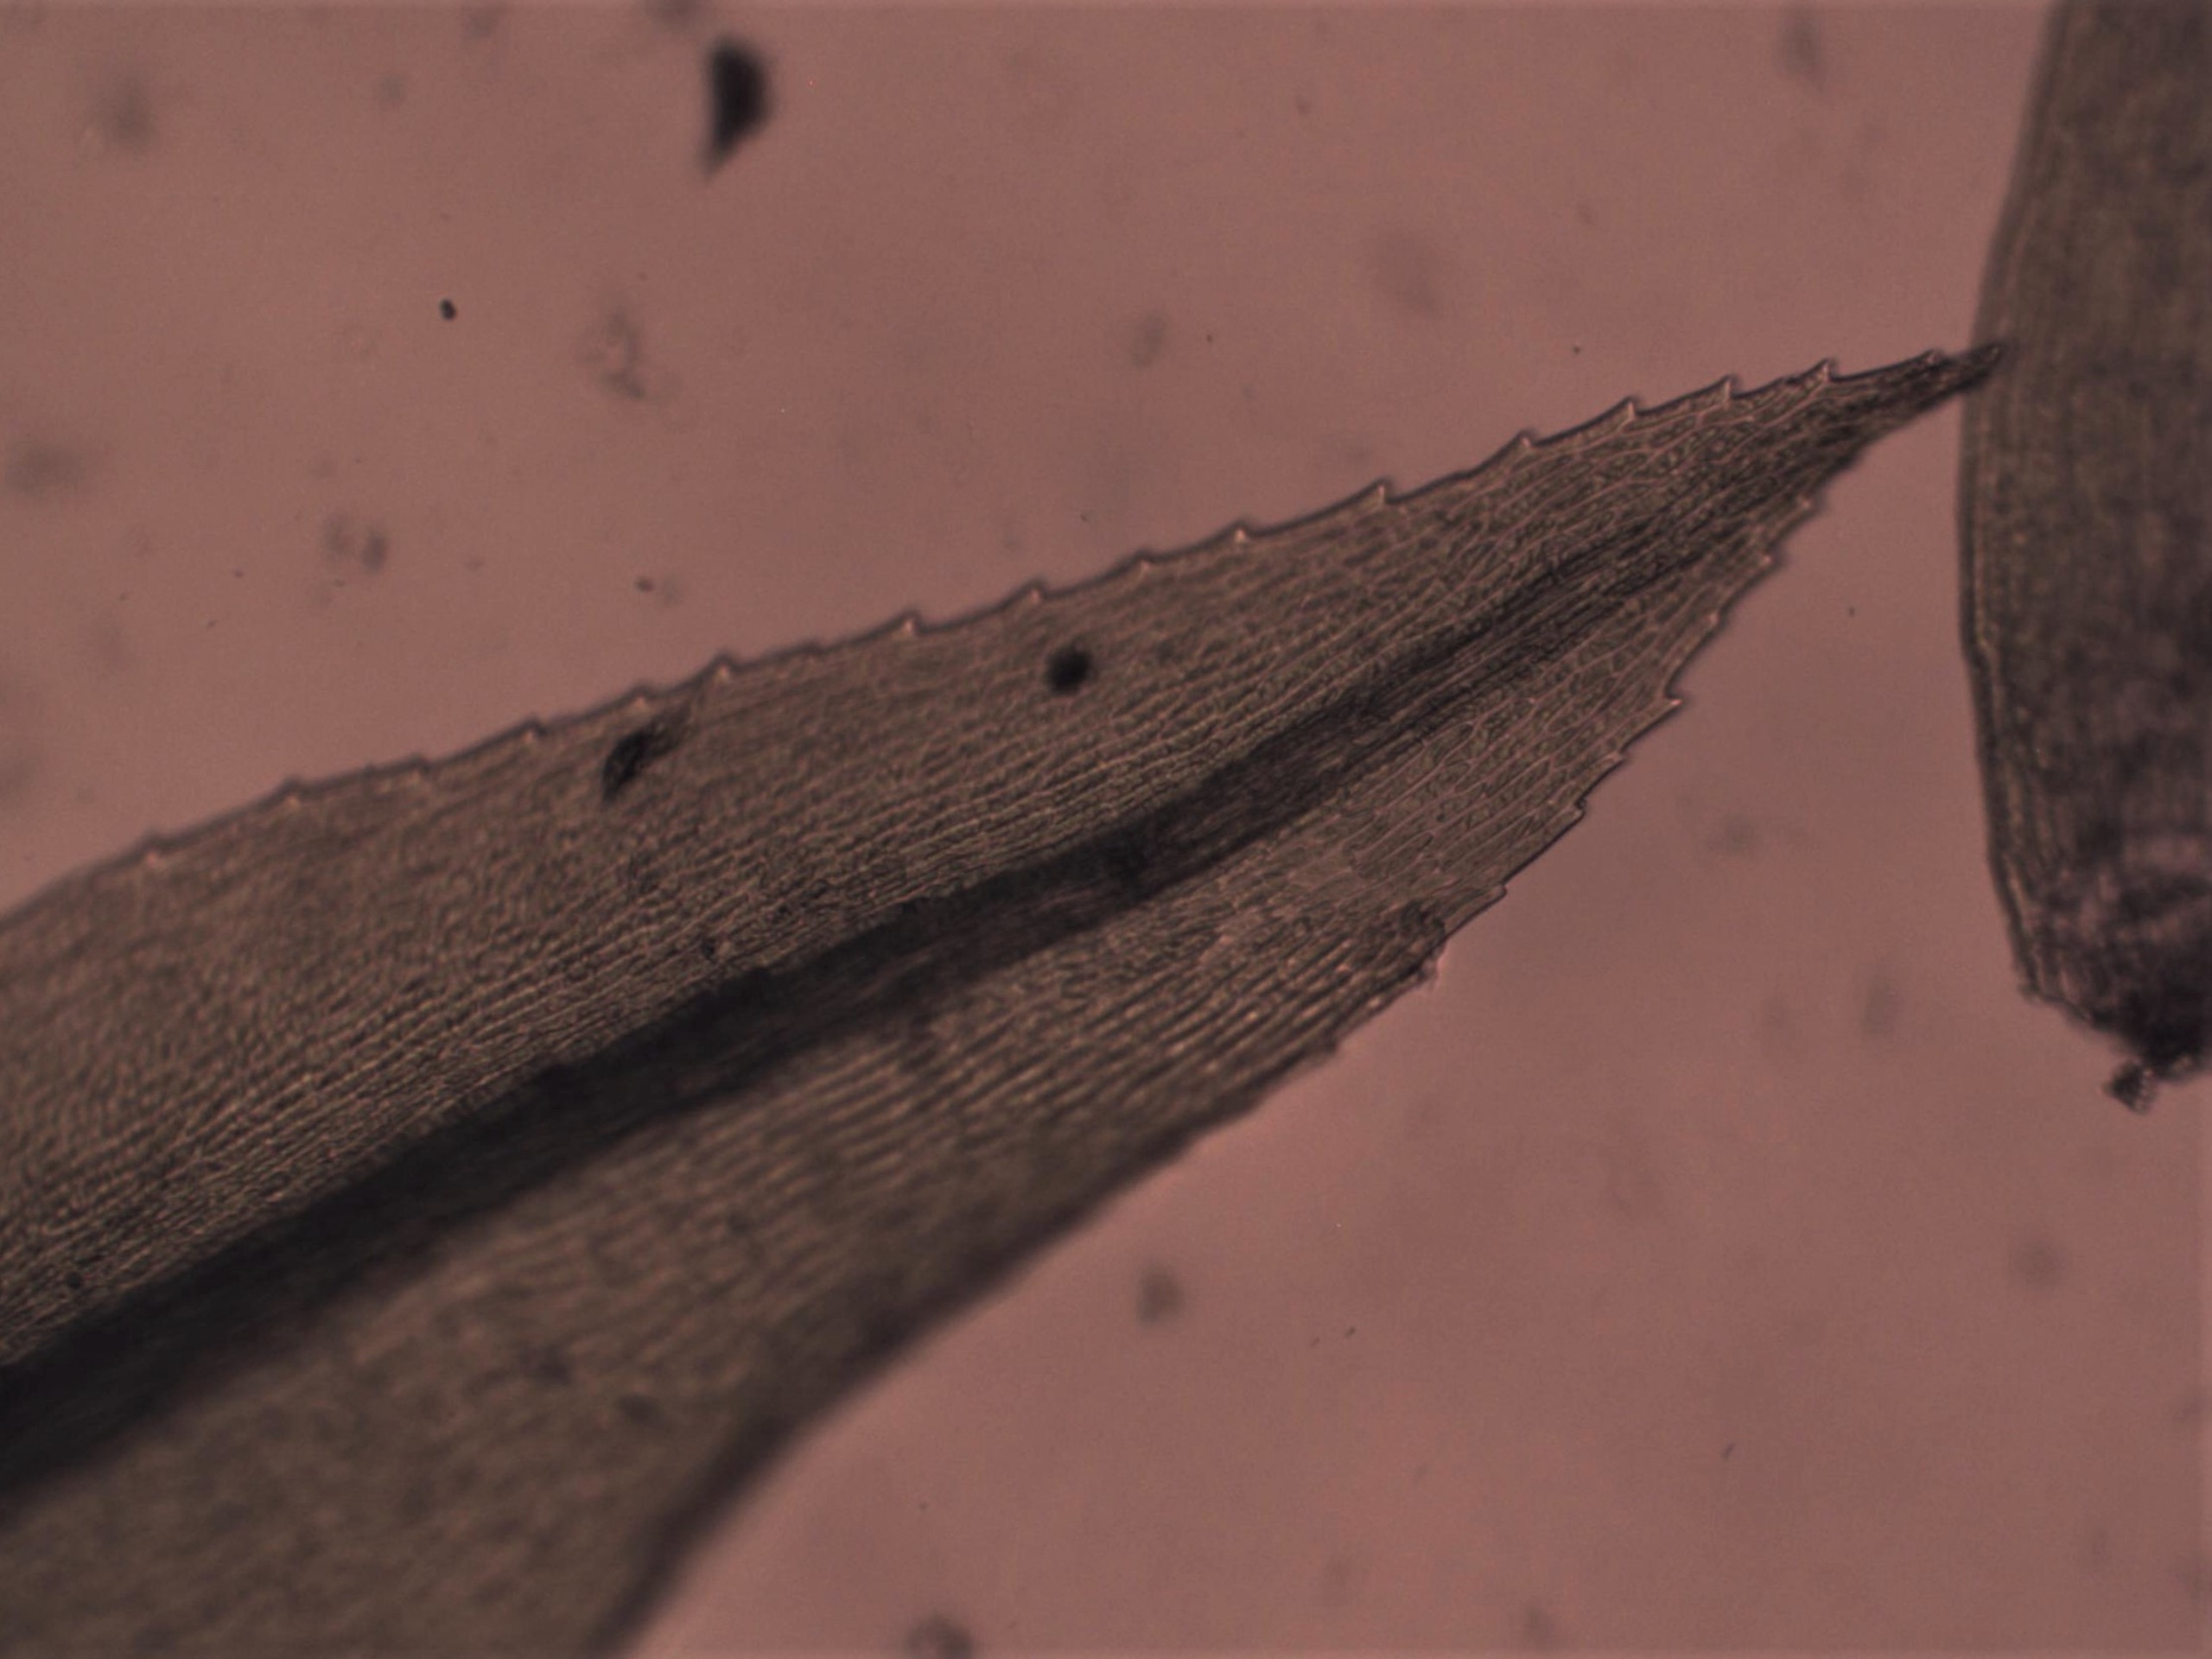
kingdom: Plantae
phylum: Bryophyta
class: Bryopsida
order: Bryales
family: Mniaceae
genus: Pohlia
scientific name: Pohlia nutans
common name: Almindelig nikkemos
